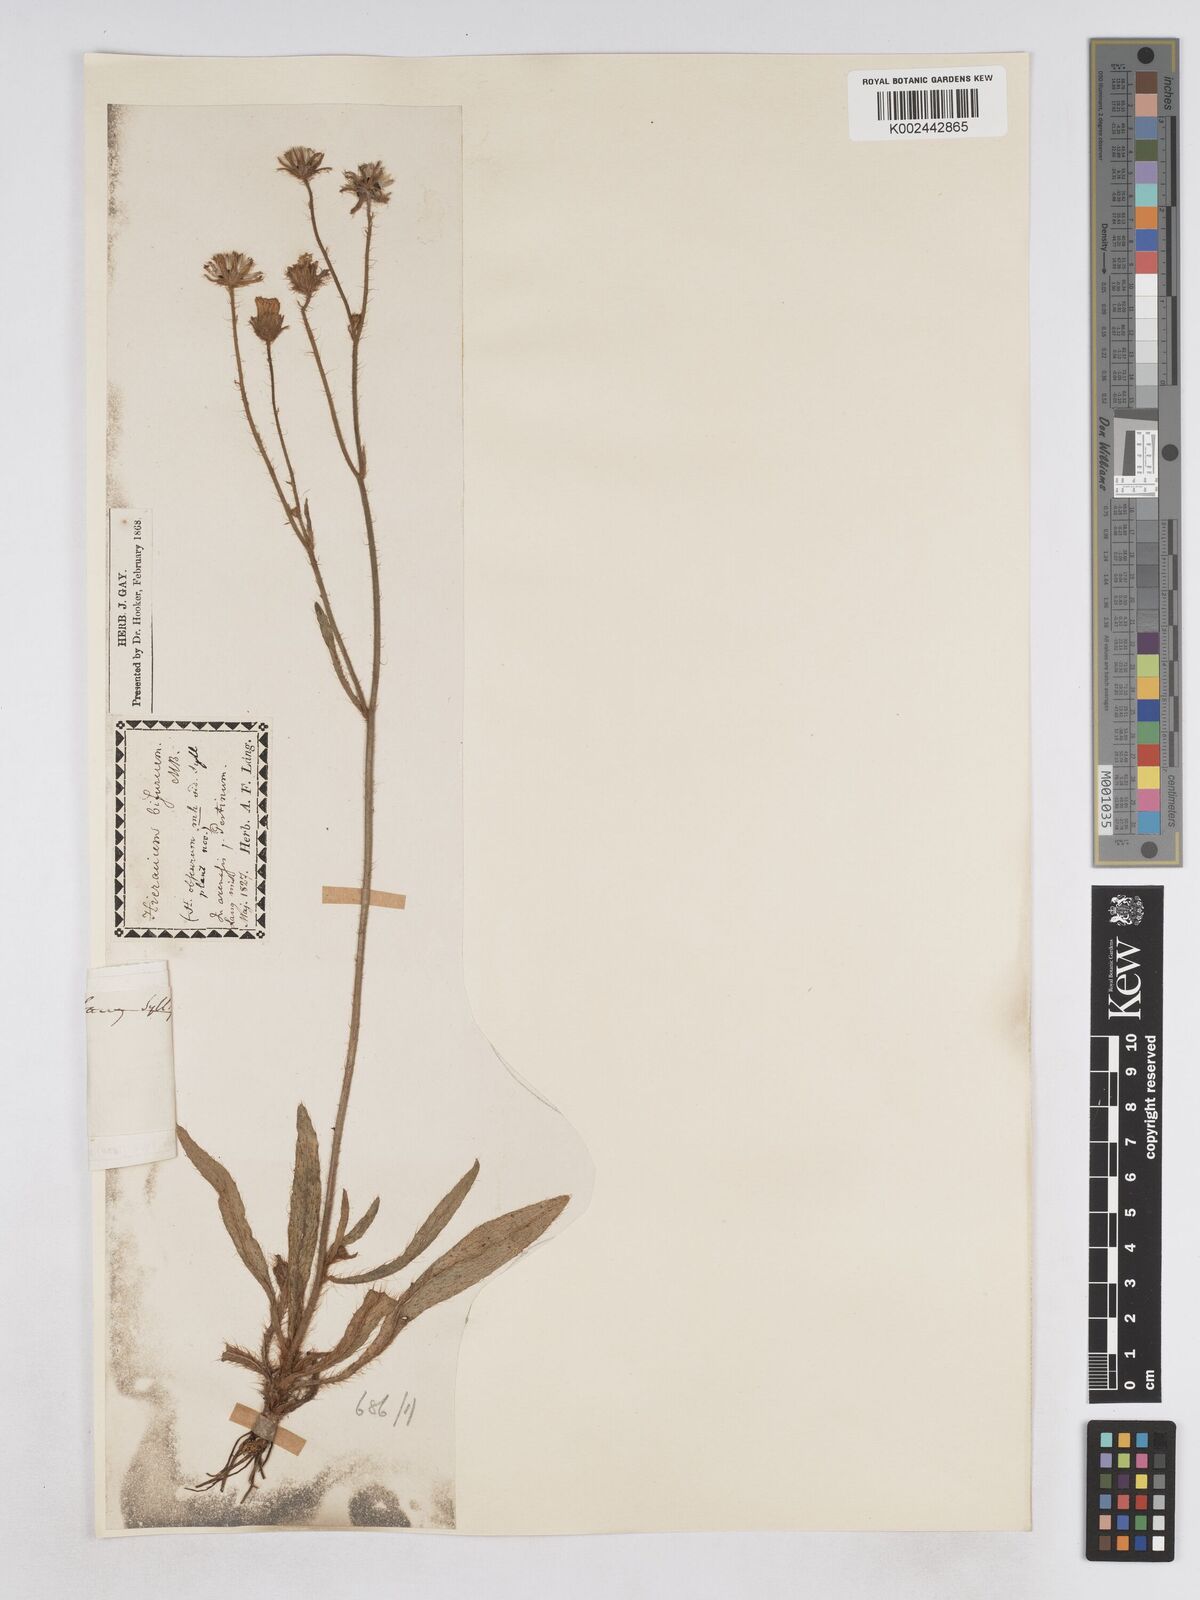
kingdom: Plantae
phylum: Tracheophyta
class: Magnoliopsida
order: Asterales
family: Asteraceae
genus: Pilosella
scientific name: Pilosella bifurca
